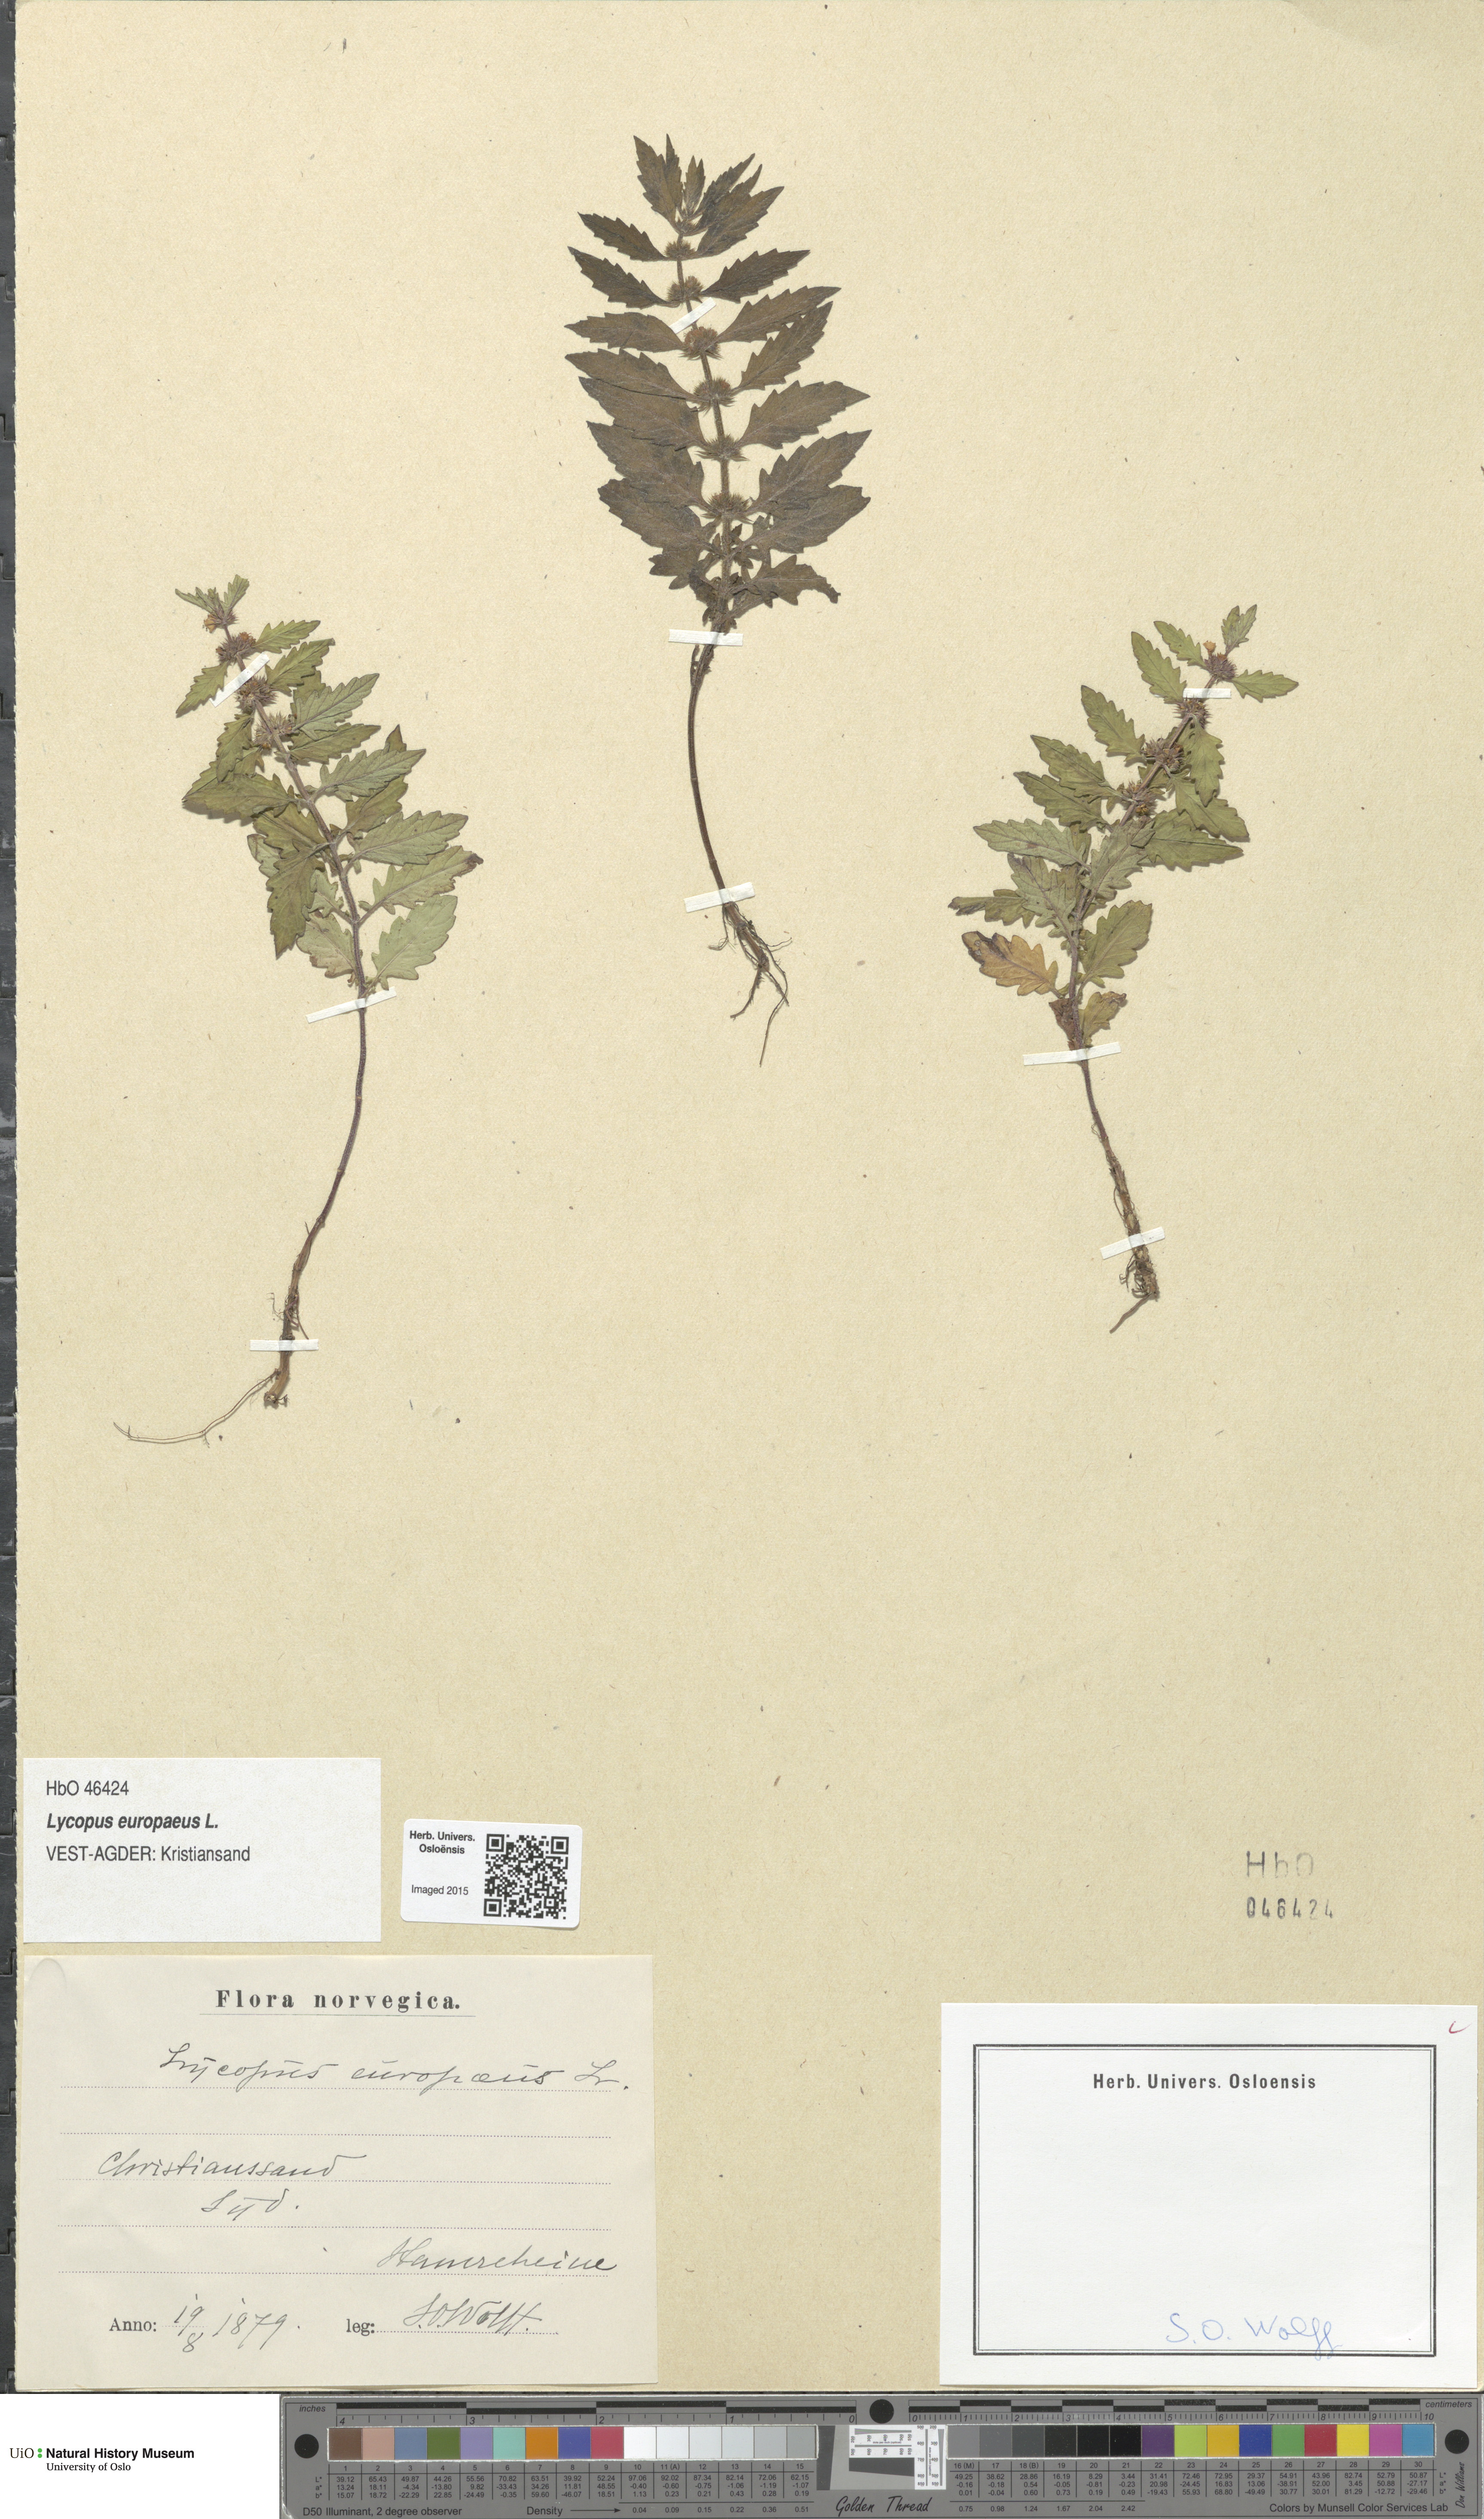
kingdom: Plantae
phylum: Tracheophyta
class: Magnoliopsida
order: Lamiales
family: Lamiaceae
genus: Lycopus
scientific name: Lycopus europaeus
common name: European bugleweed
